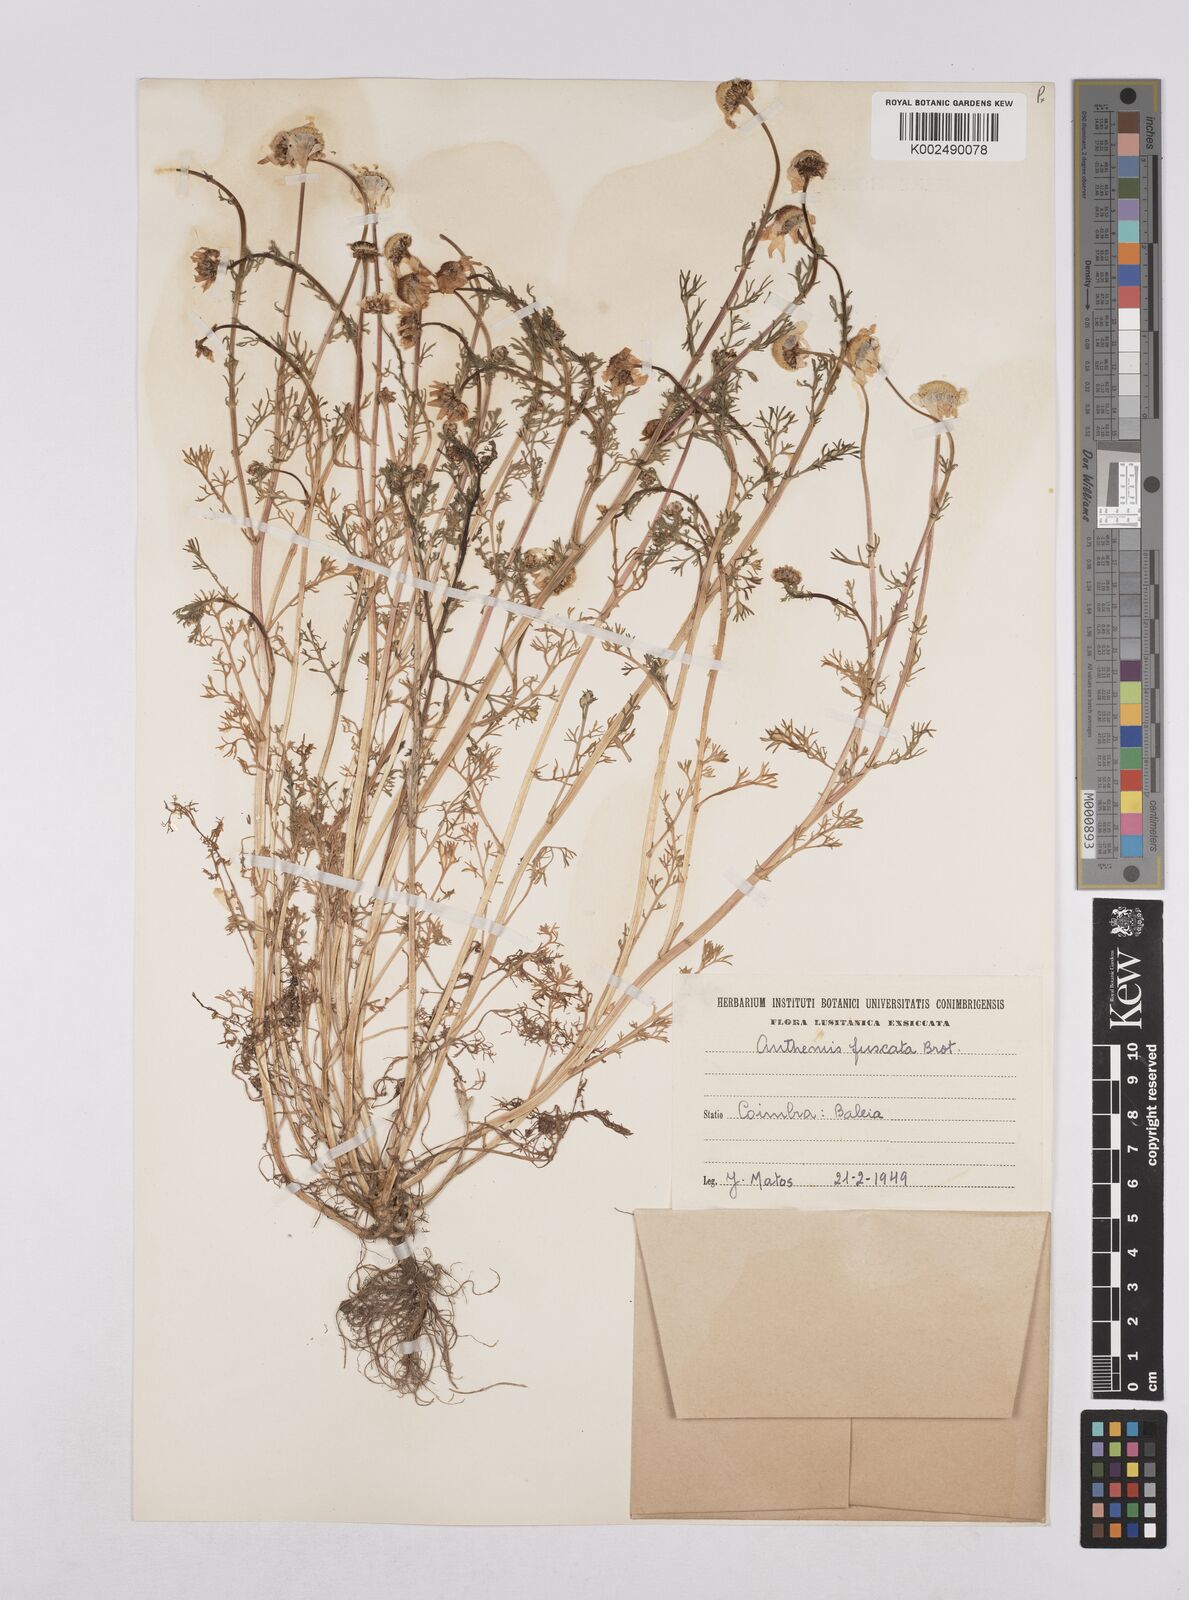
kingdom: Plantae
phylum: Tracheophyta
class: Magnoliopsida
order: Asterales
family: Asteraceae
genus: Chamaemelum
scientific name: Chamaemelum fuscatum
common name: Chamomile
